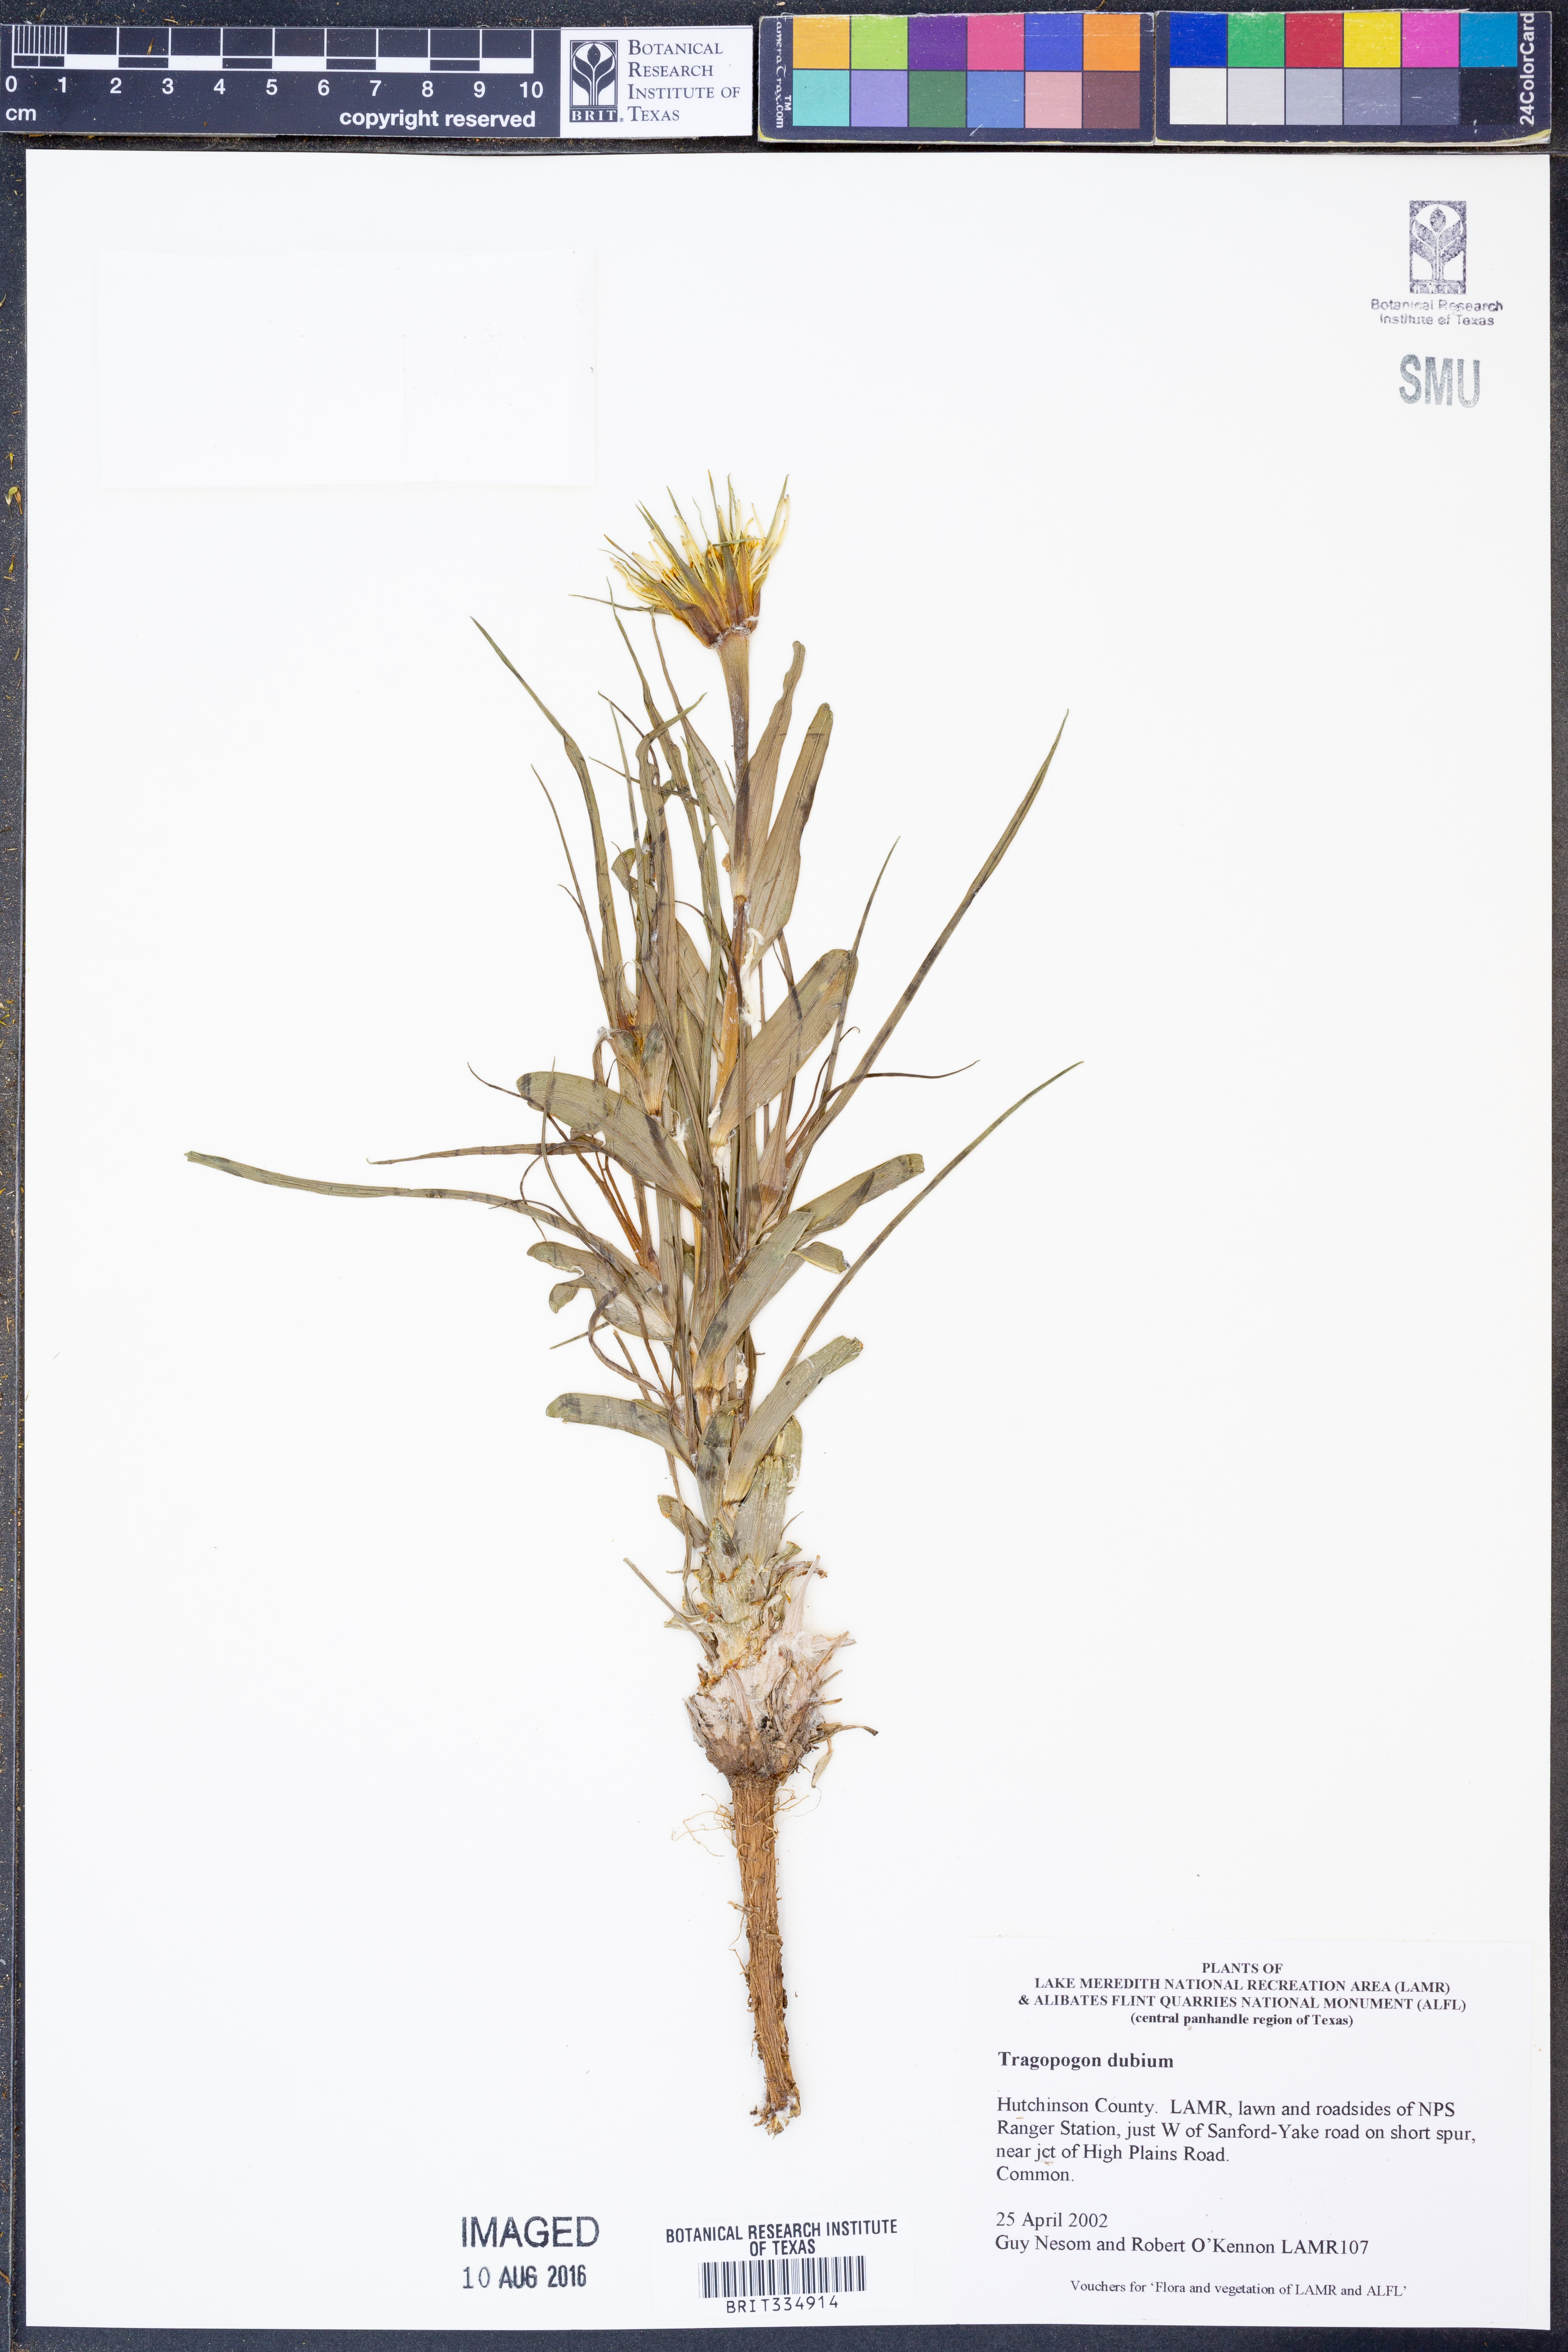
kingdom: Plantae
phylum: Tracheophyta
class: Magnoliopsida
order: Asterales
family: Asteraceae
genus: Tragopogon
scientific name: Tragopogon dubius
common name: Yellow salsify
